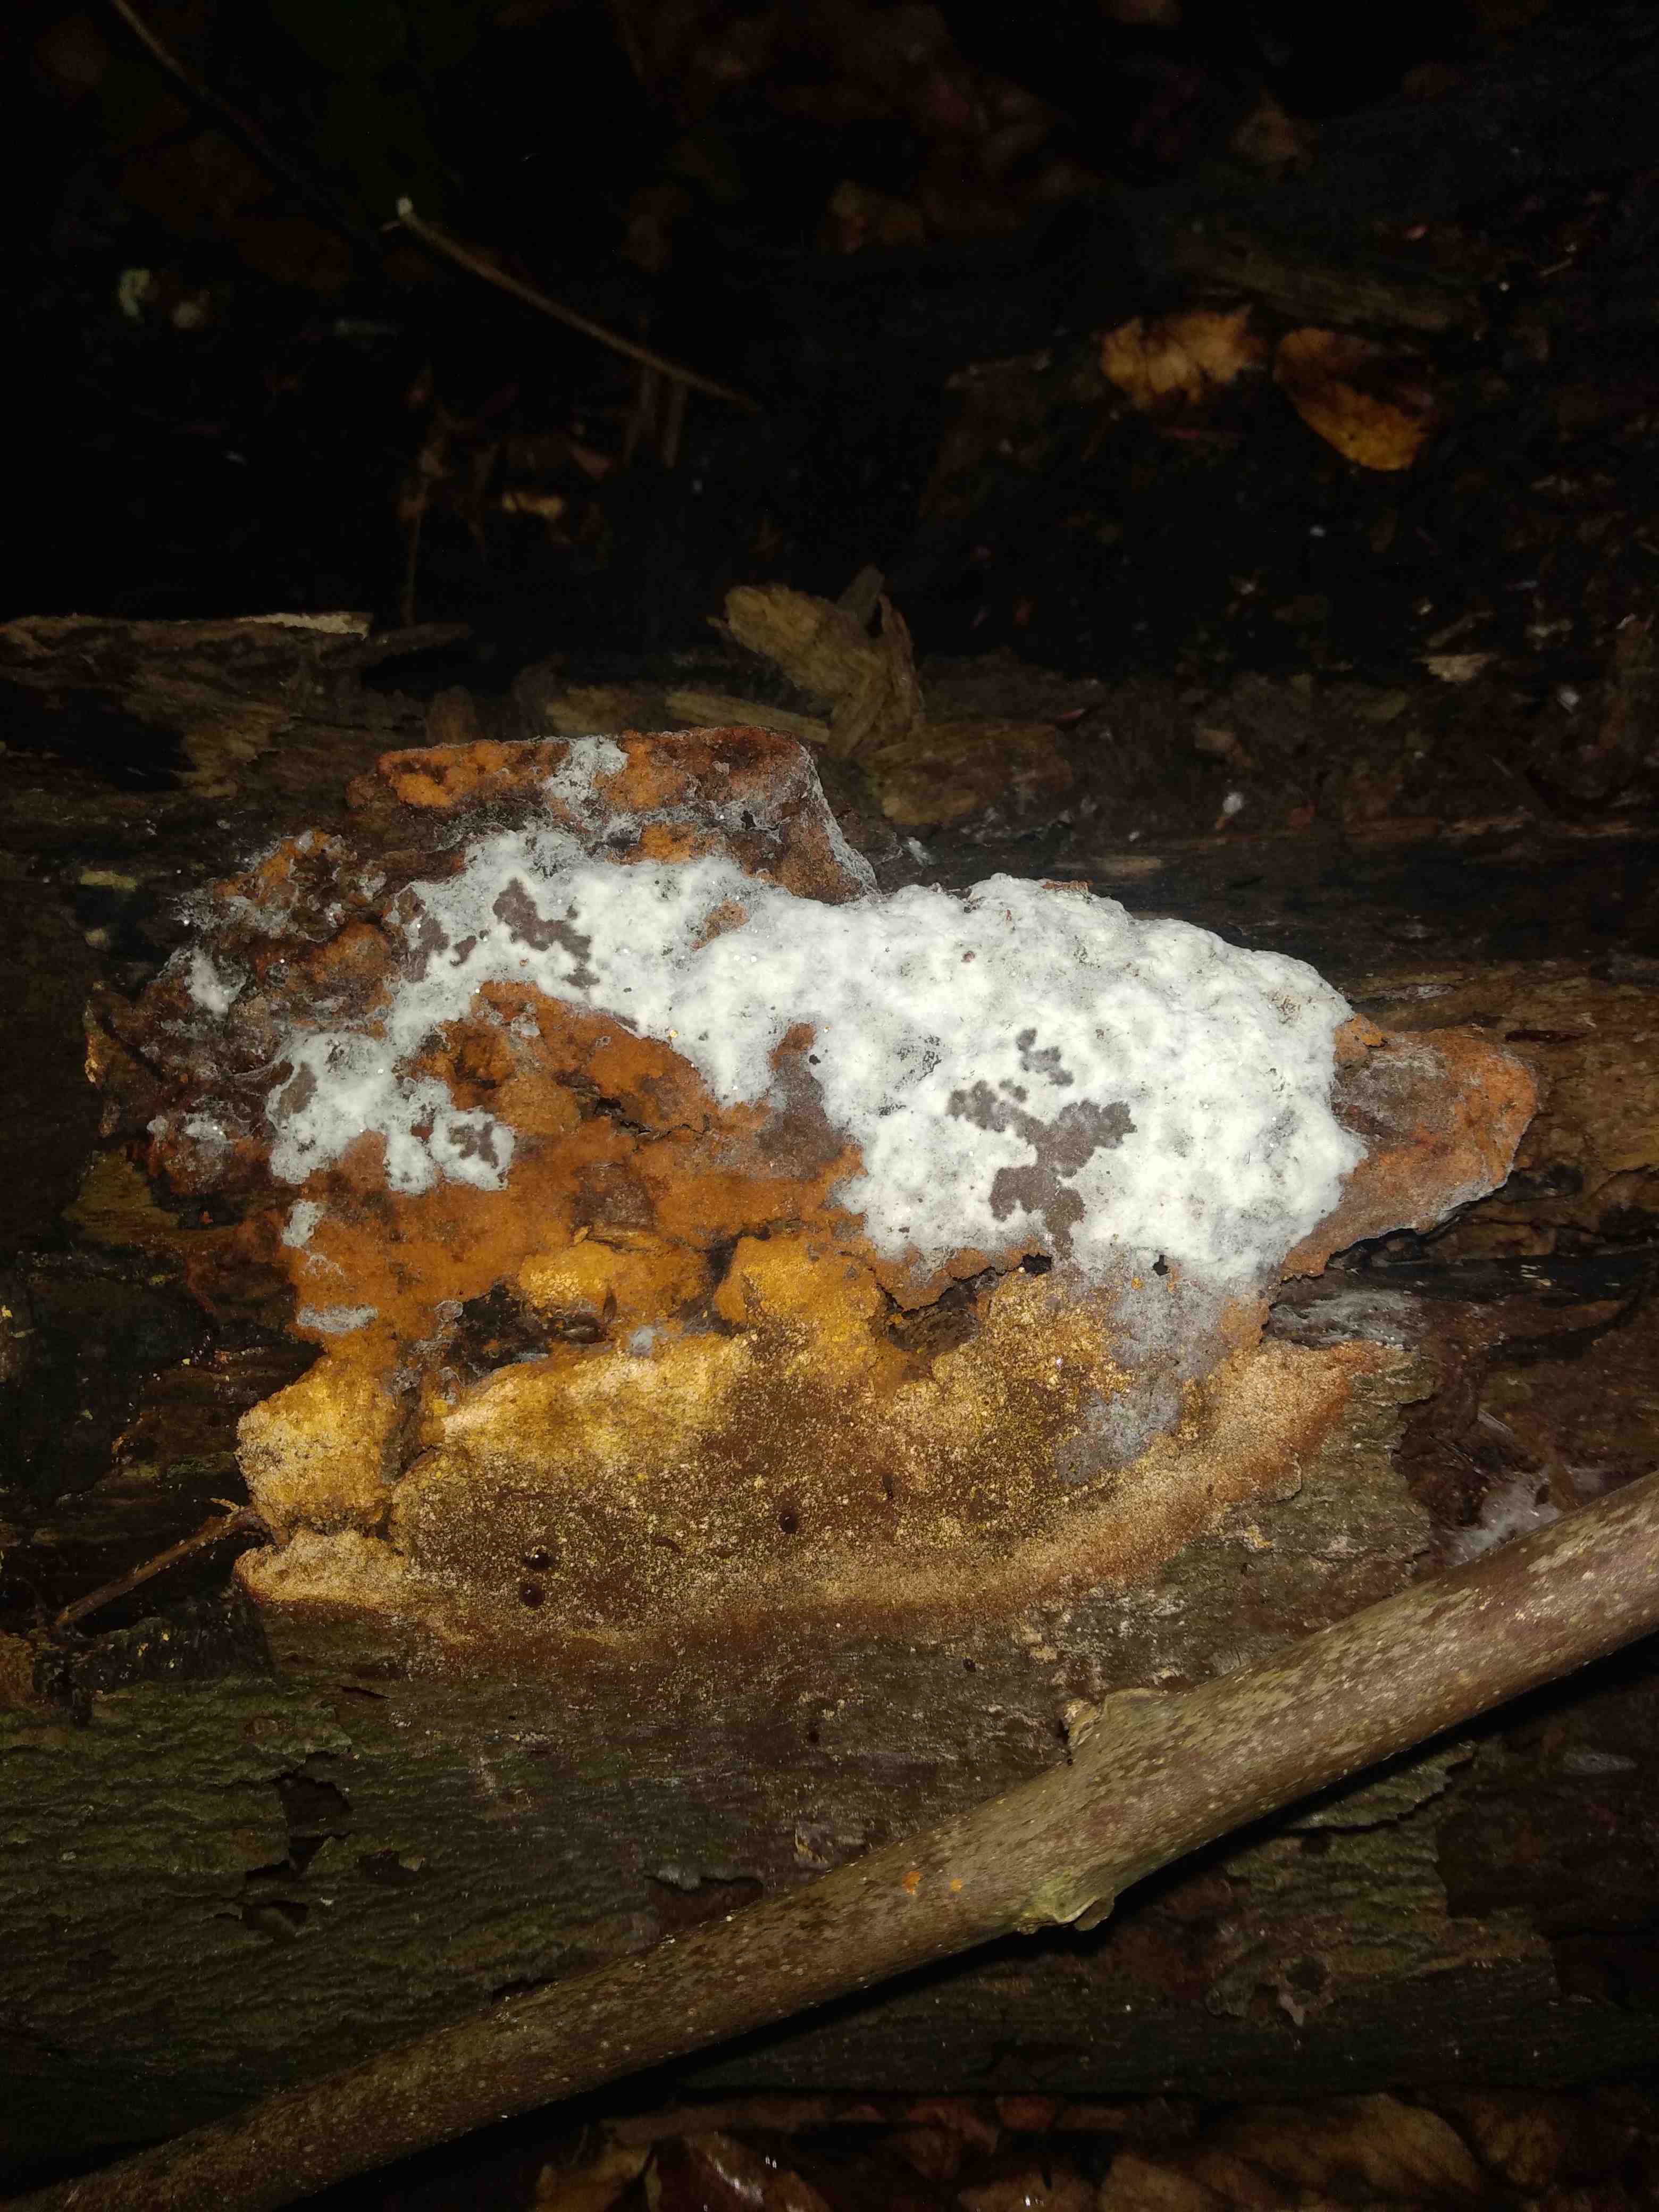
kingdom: Fungi
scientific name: Fungi
